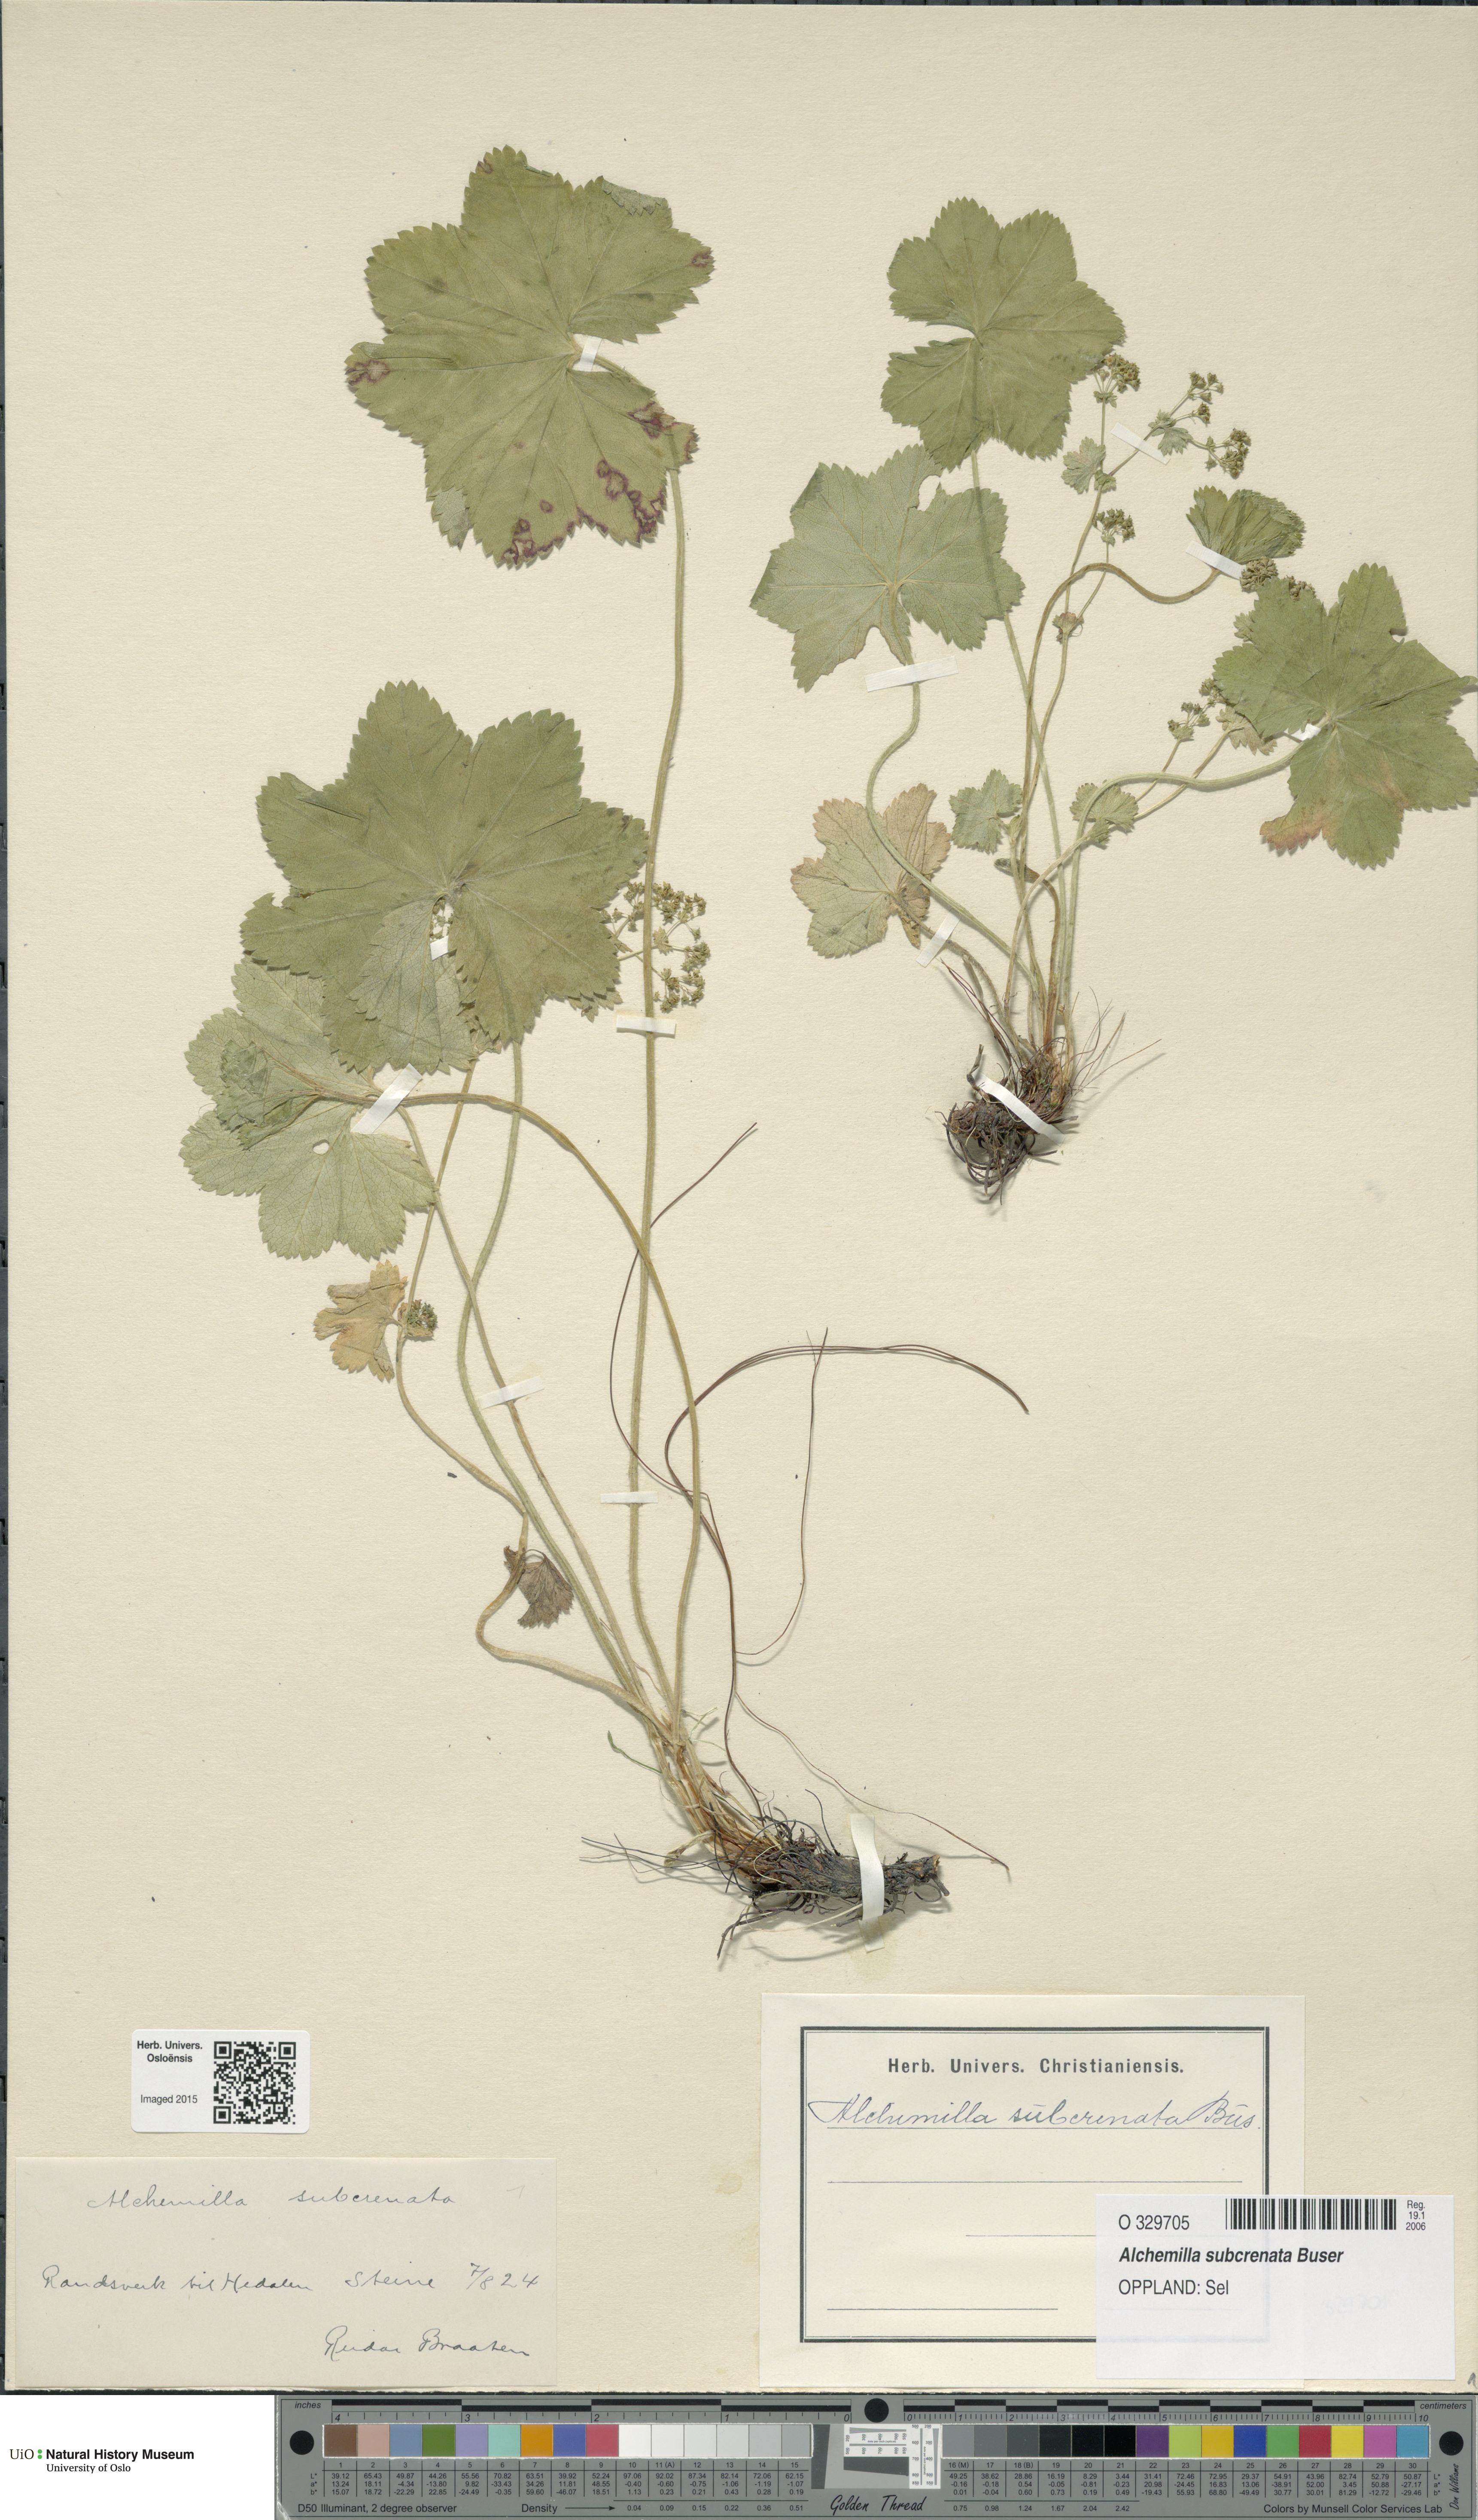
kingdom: Plantae
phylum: Tracheophyta
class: Magnoliopsida
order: Rosales
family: Rosaceae
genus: Alchemilla
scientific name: Alchemilla subcrenata
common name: Broadtooth lady's mantle
